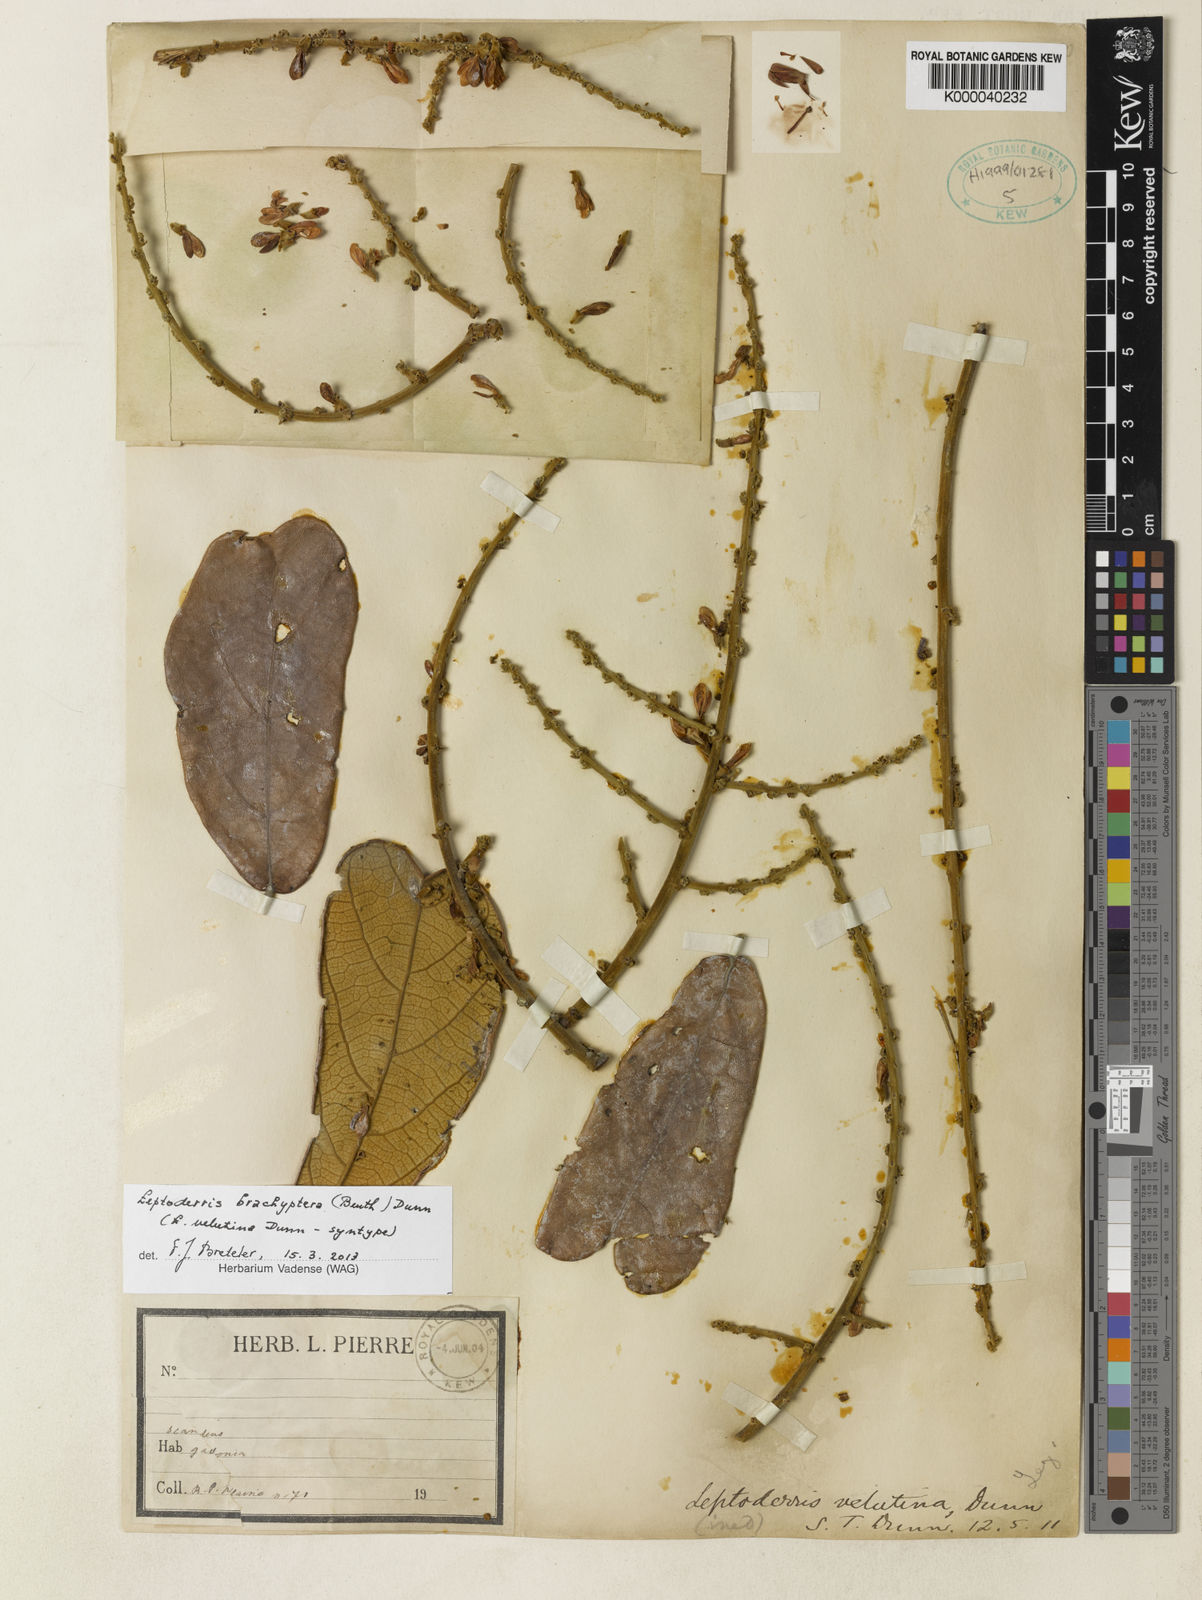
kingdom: Plantae
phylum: Tracheophyta
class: Magnoliopsida
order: Fabales
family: Fabaceae
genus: Leptoderris
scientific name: Leptoderris brachyptera
